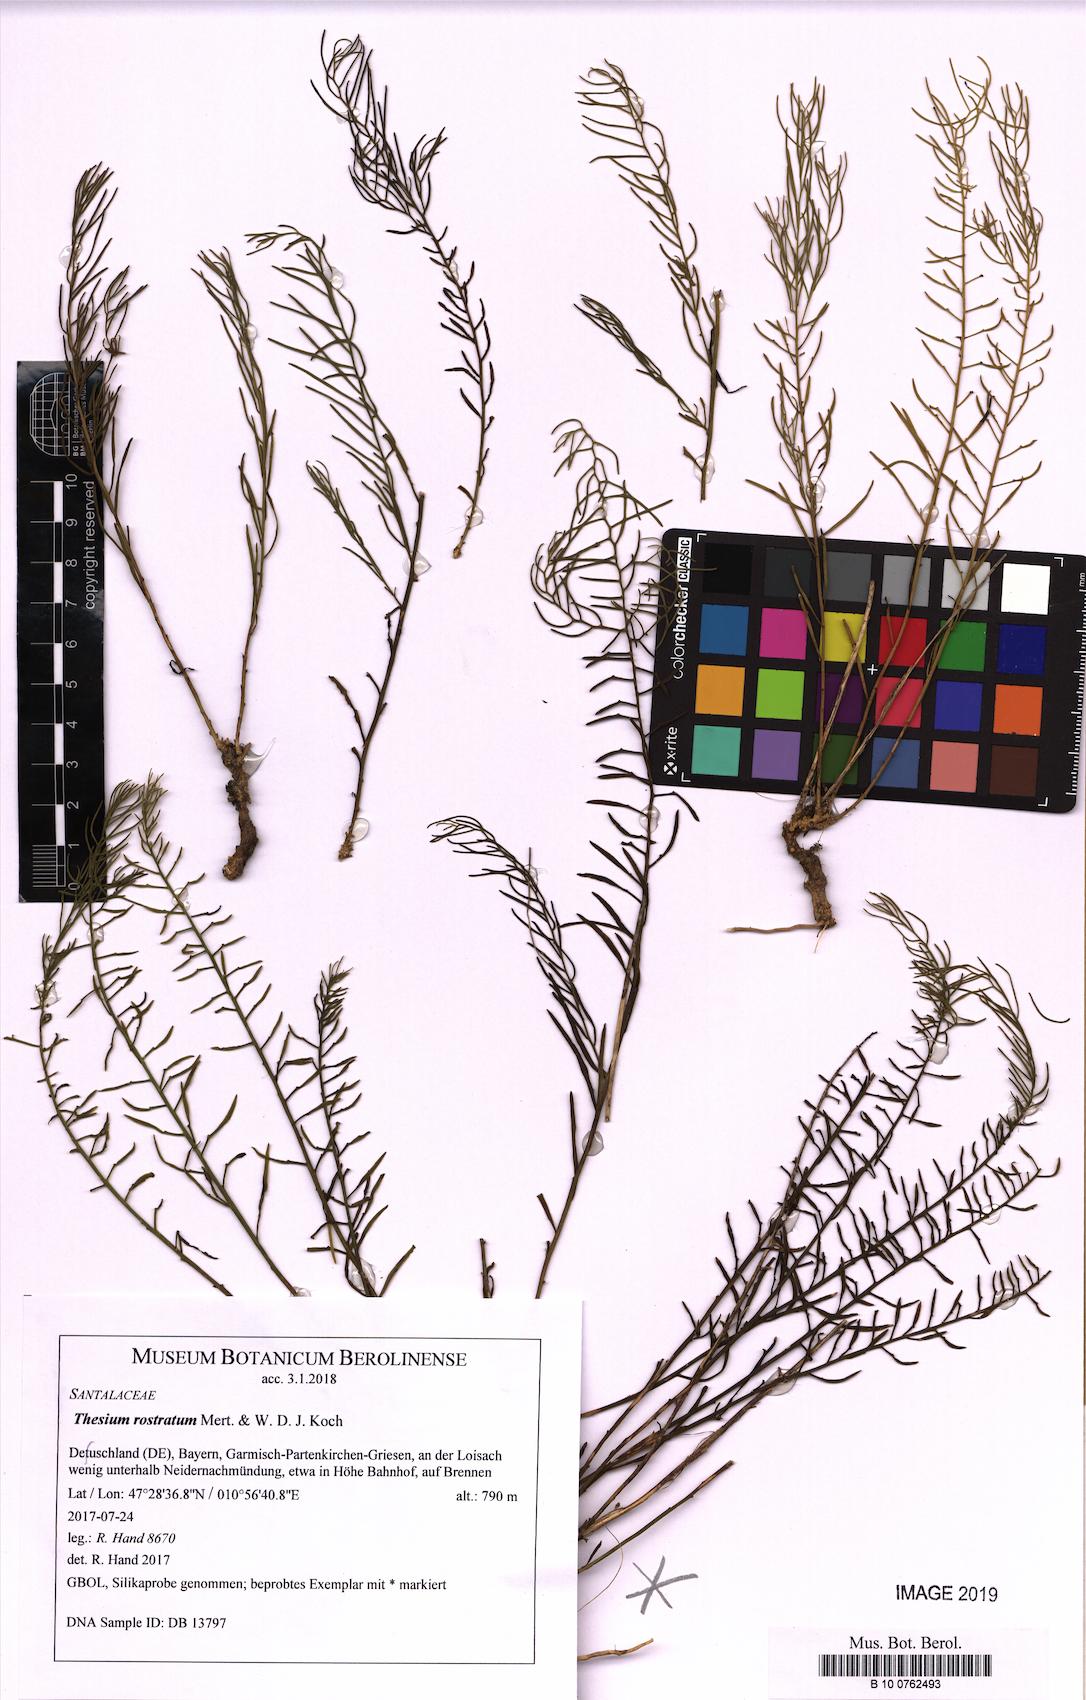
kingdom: Plantae
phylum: Tracheophyta
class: Magnoliopsida
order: Santalales
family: Thesiaceae
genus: Thesium
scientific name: Thesium rostratum
